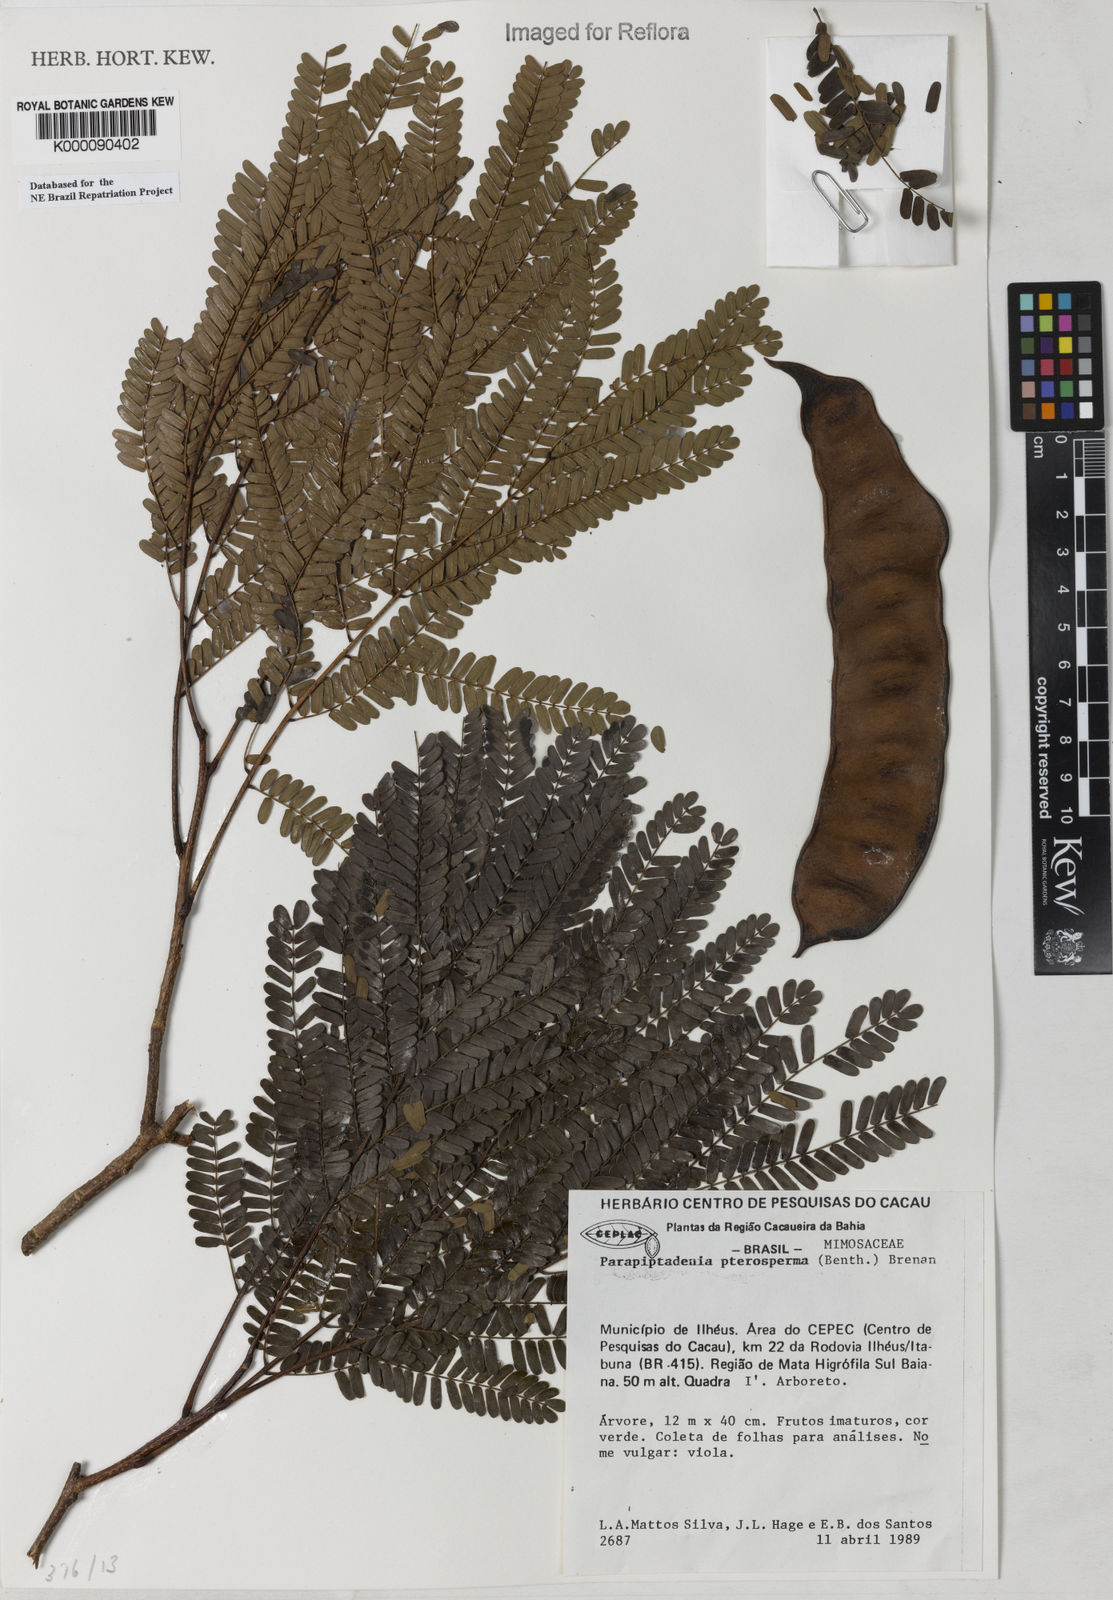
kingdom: Plantae
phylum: Tracheophyta
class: Magnoliopsida
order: Fabales
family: Fabaceae
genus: Parapiptadenia
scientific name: Parapiptadenia pterosperma
